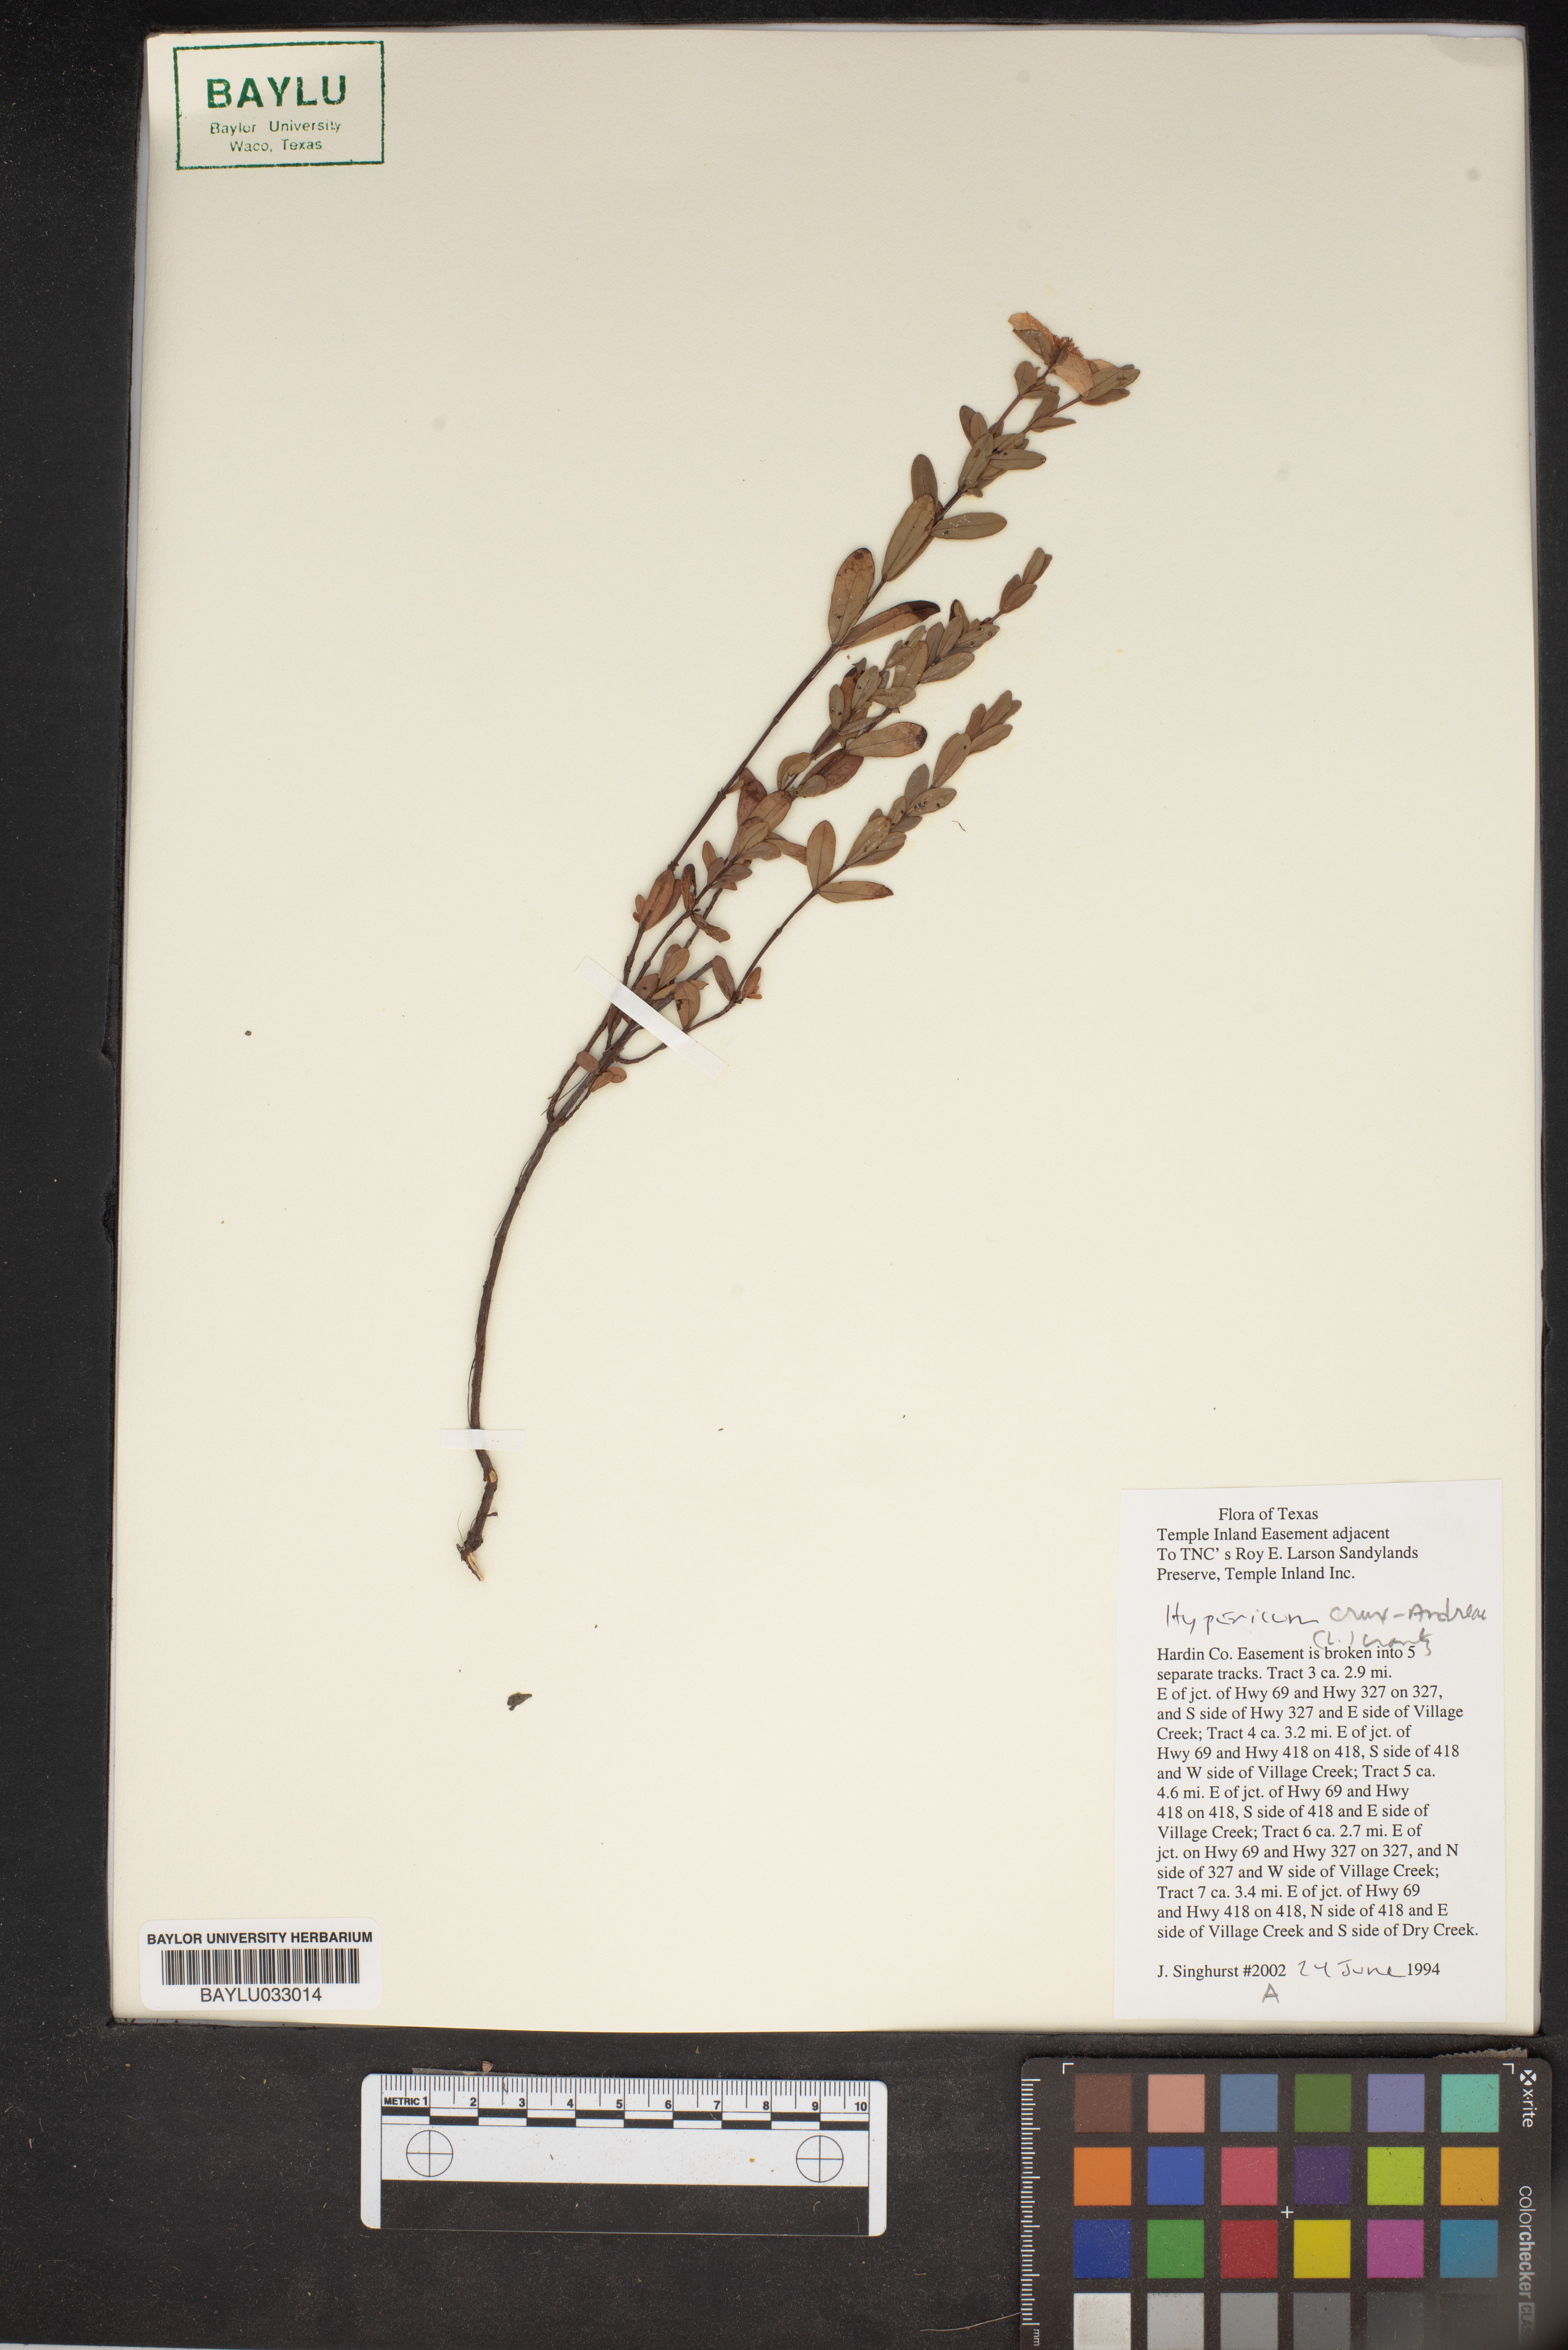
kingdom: Plantae
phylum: Tracheophyta
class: Magnoliopsida
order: Malpighiales
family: Hypericaceae
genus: Hypericum
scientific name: Hypericum crux-andreae
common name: St.-peter's-wort
